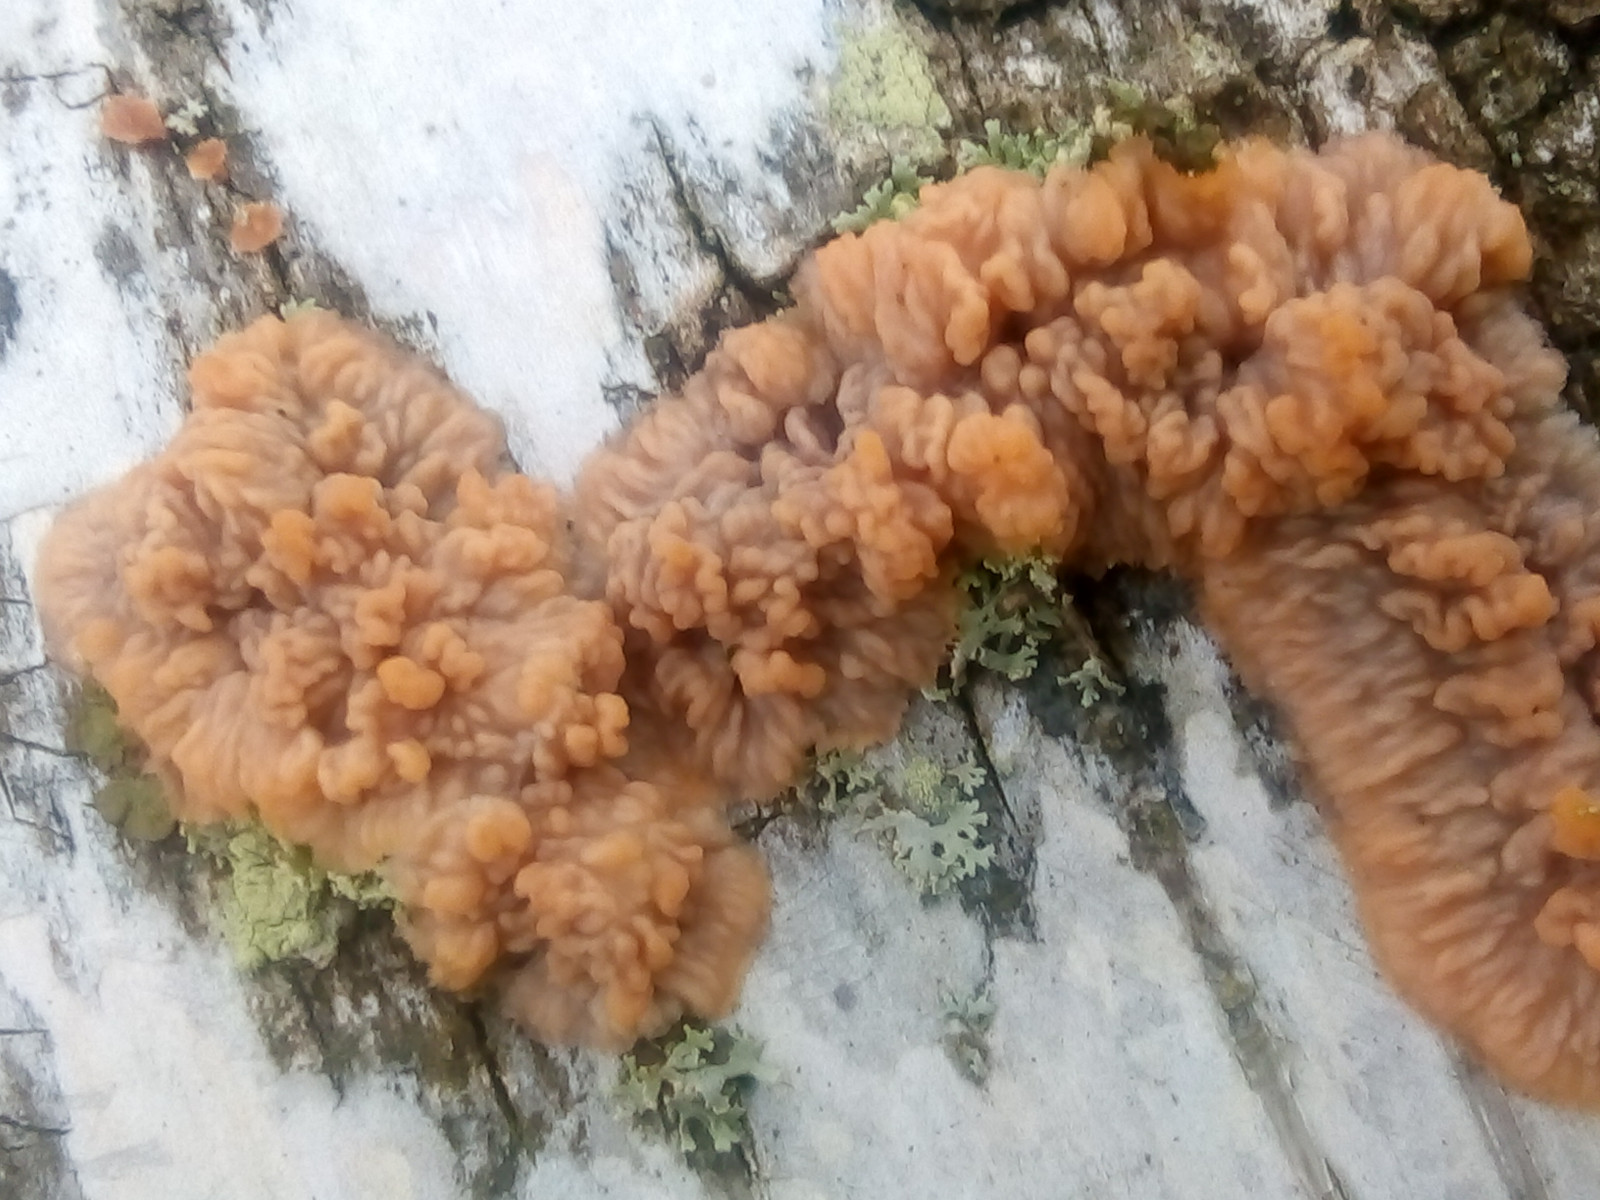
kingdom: Fungi
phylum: Basidiomycota
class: Agaricomycetes
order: Polyporales
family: Meruliaceae
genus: Phlebia
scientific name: Phlebia radiata
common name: stråle-åresvamp
